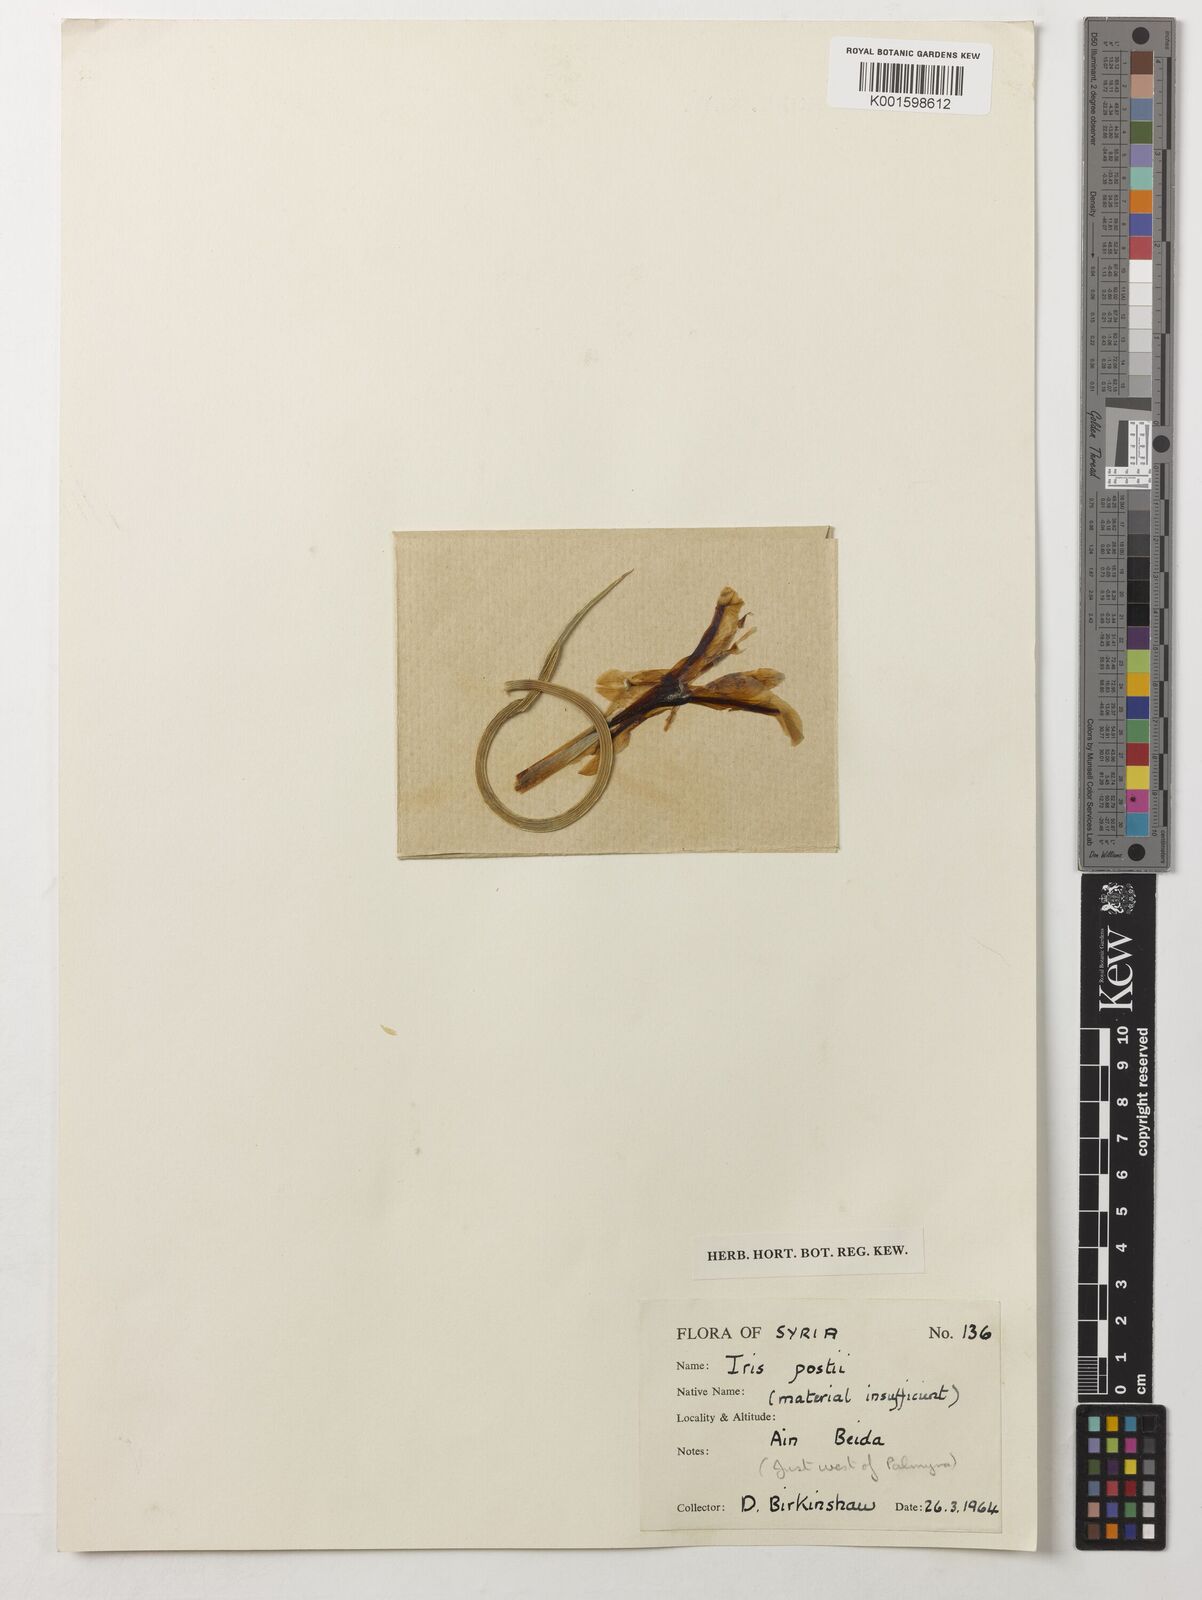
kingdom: Plantae
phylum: Tracheophyta
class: Liliopsida
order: Asparagales
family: Iridaceae
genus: Iris
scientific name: Iris postii
